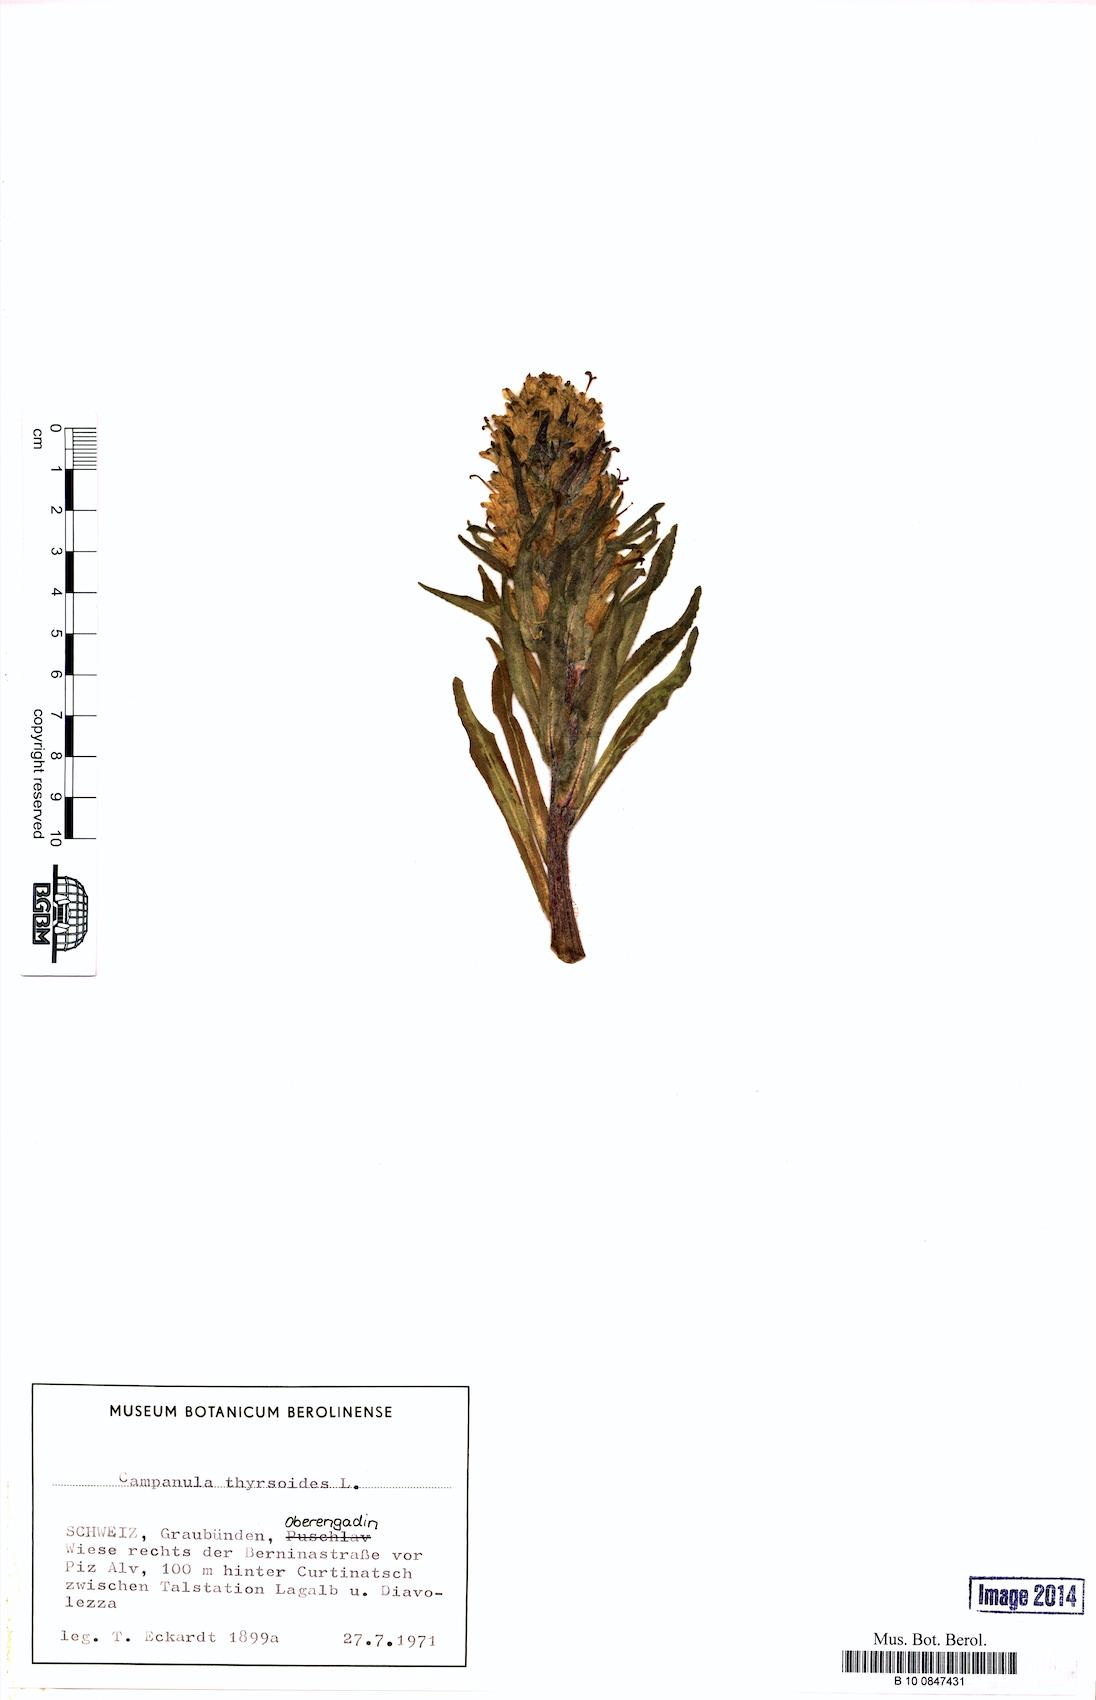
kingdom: Plantae
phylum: Tracheophyta
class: Magnoliopsida
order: Asterales
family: Campanulaceae
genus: Campanula
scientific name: Campanula thyrsoides
